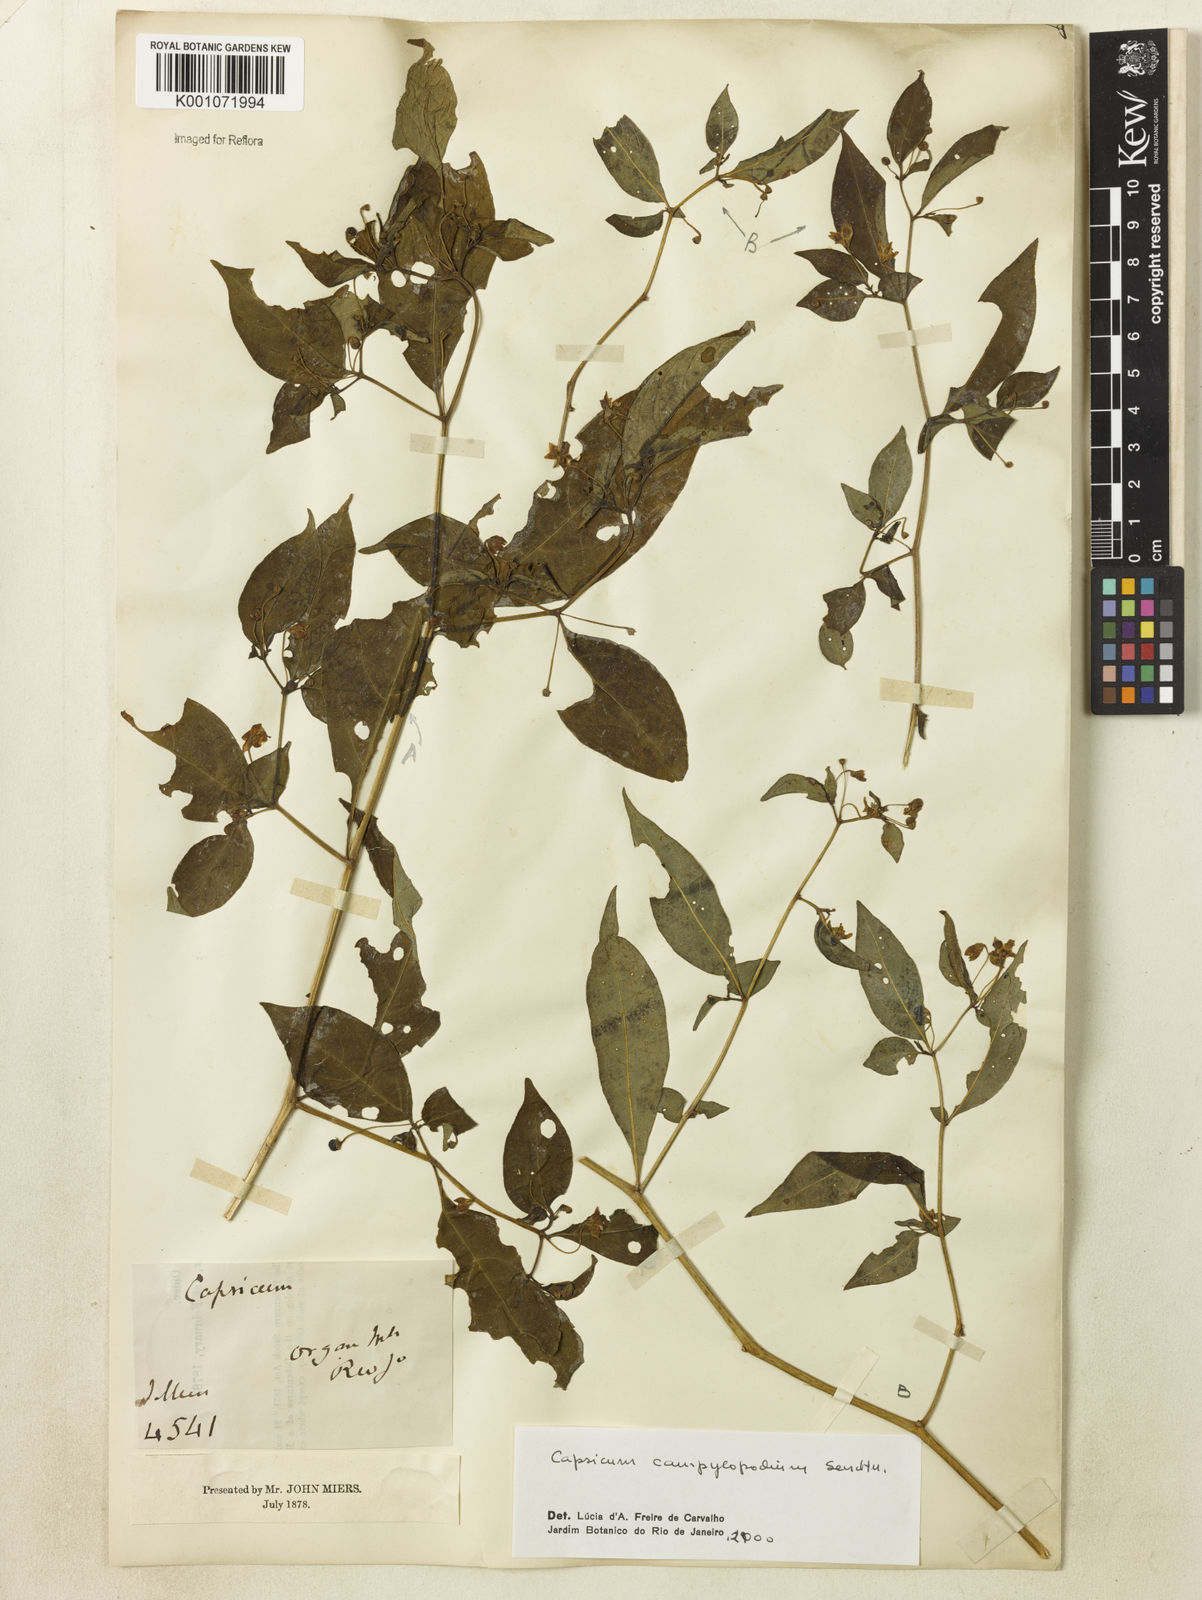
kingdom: Plantae
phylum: Tracheophyta
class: Magnoliopsida
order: Solanales
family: Solanaceae
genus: Capsicum
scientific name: Capsicum campylopodium
